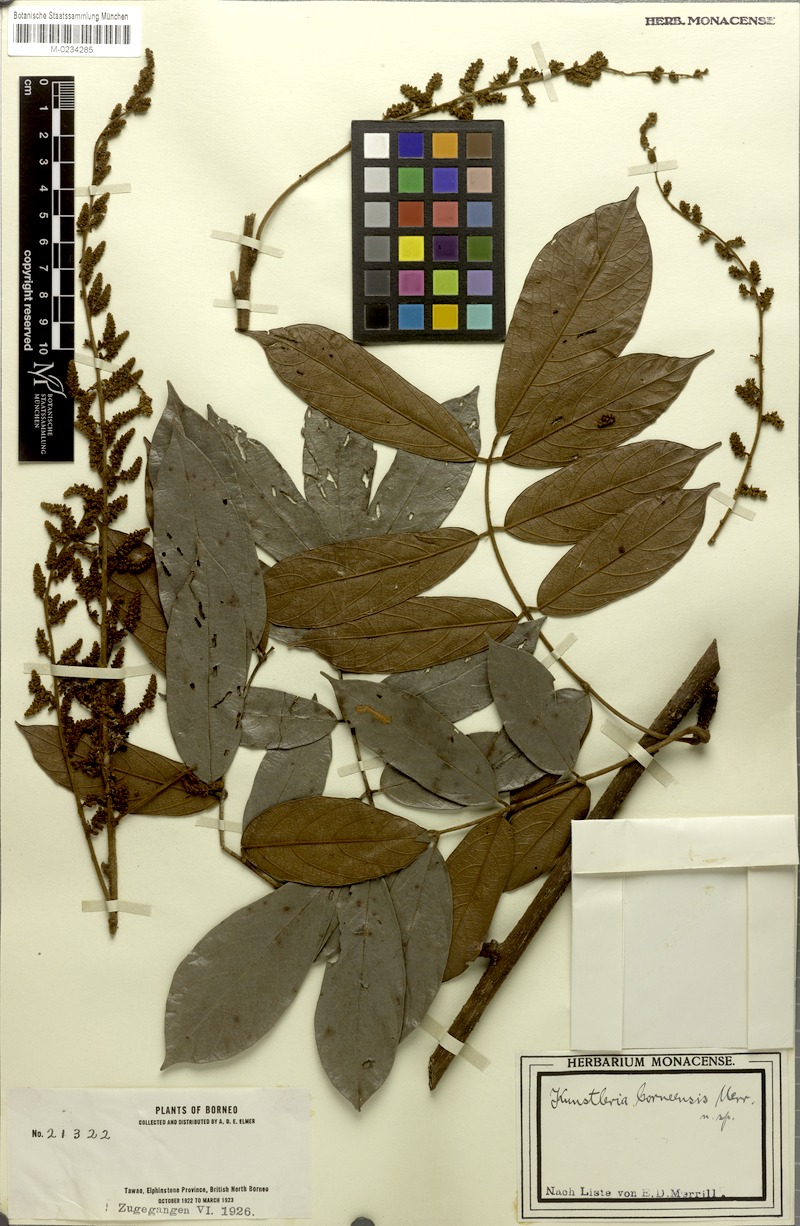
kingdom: Plantae
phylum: Tracheophyta
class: Magnoliopsida
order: Fabales
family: Fabaceae
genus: Kunstleria
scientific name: Kunstleria forbesii
